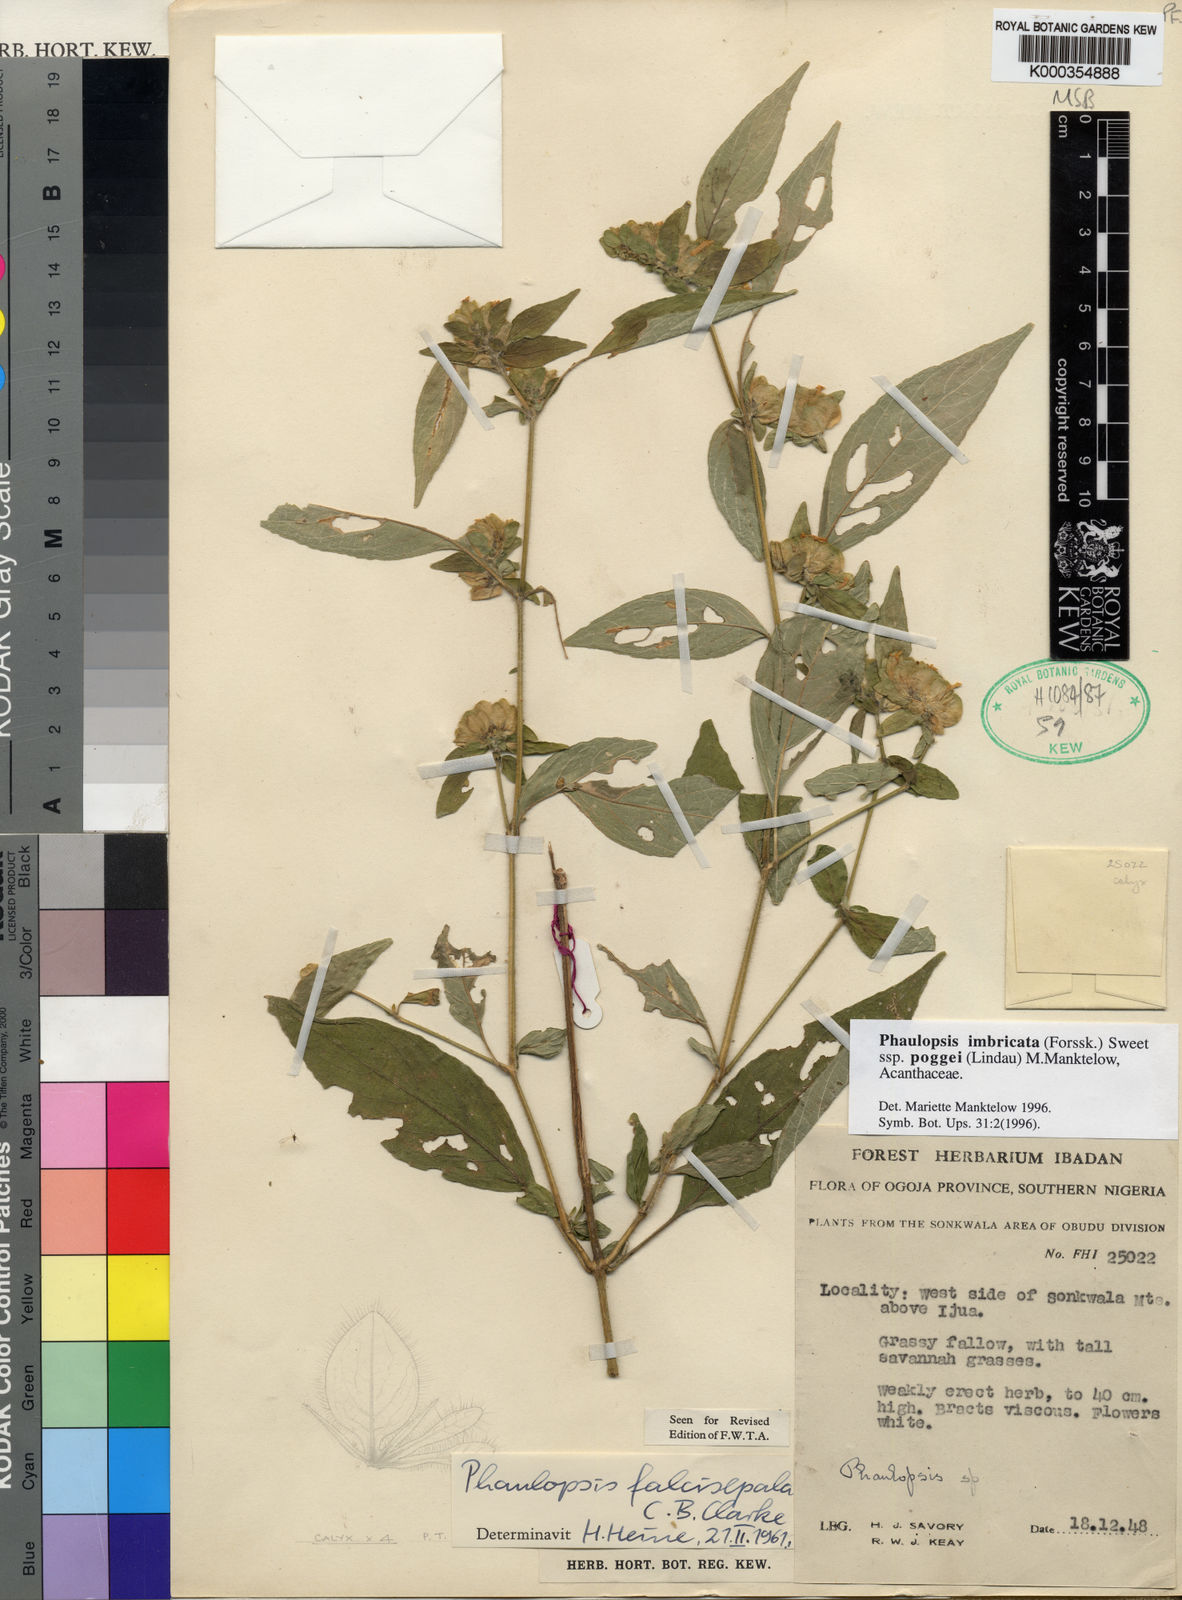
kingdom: Plantae
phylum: Tracheophyta
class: Magnoliopsida
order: Lamiales
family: Acanthaceae
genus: Phaulopsis
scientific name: Phaulopsis imbricata
